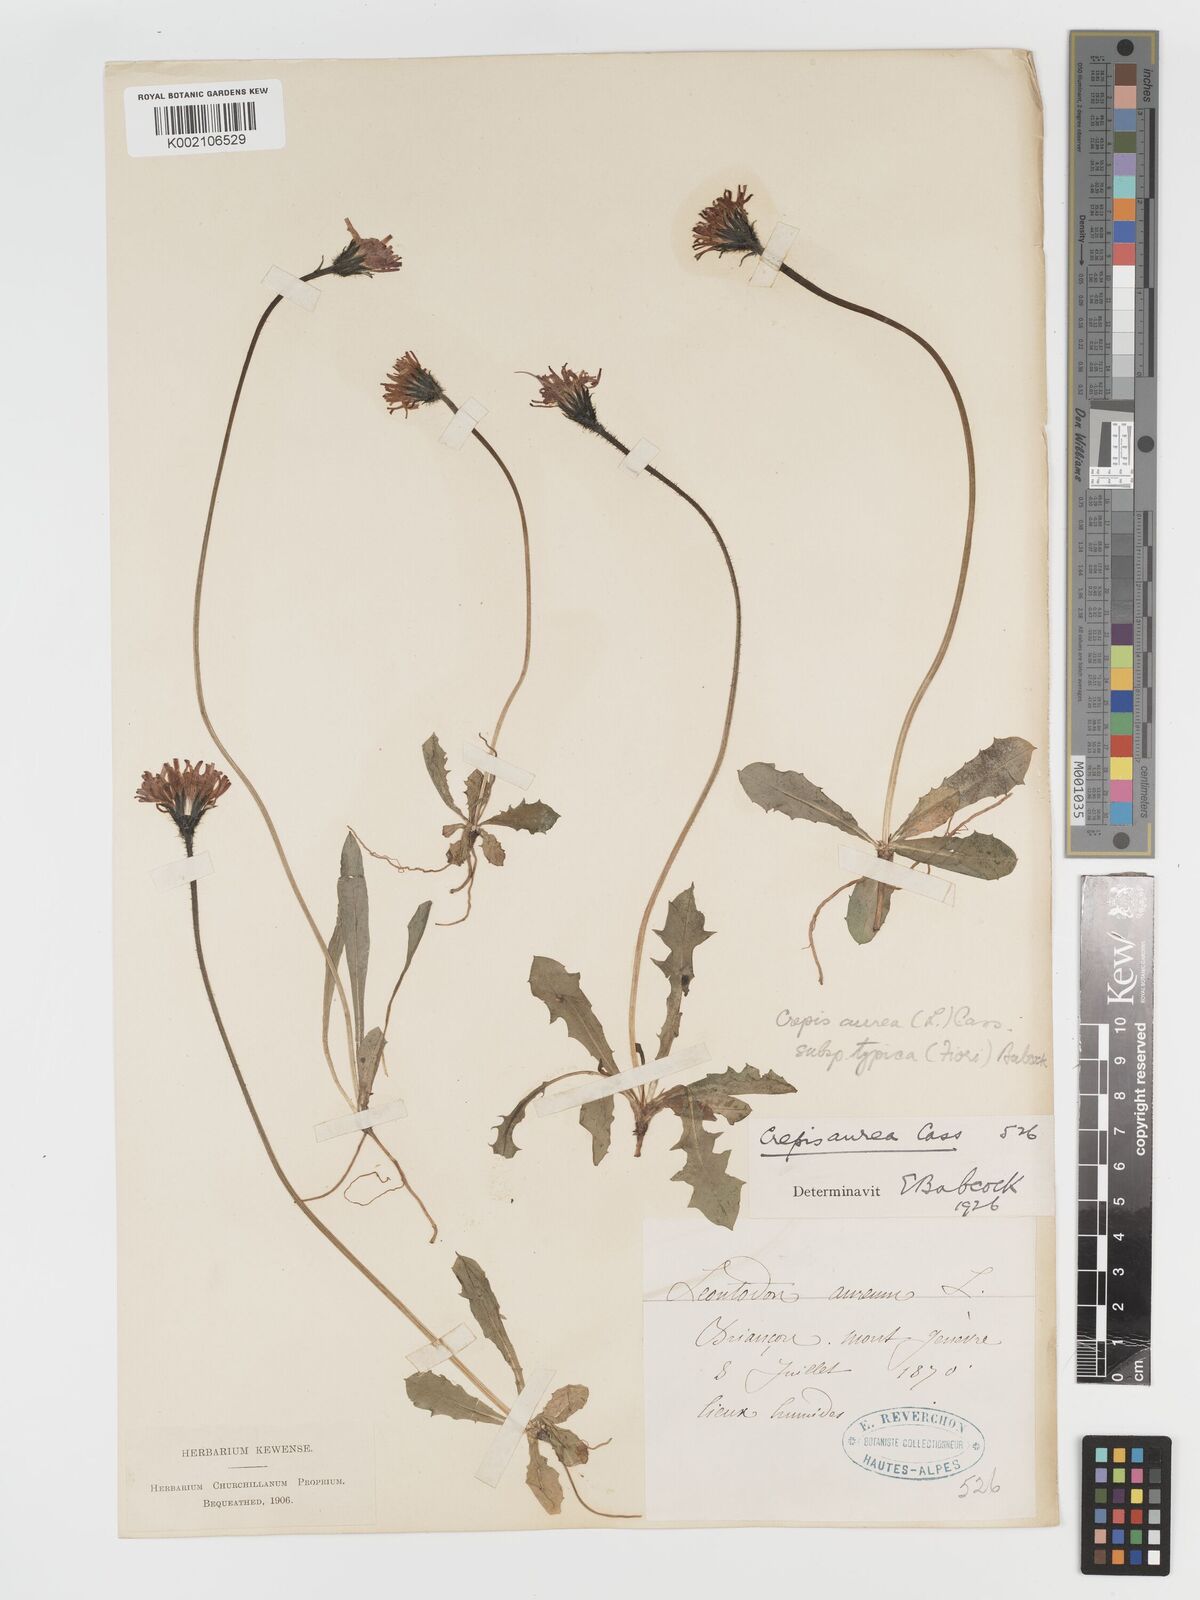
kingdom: Plantae
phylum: Tracheophyta
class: Magnoliopsida
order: Asterales
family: Asteraceae
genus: Crepis
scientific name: Crepis aurea
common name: Golden hawk's-beard
